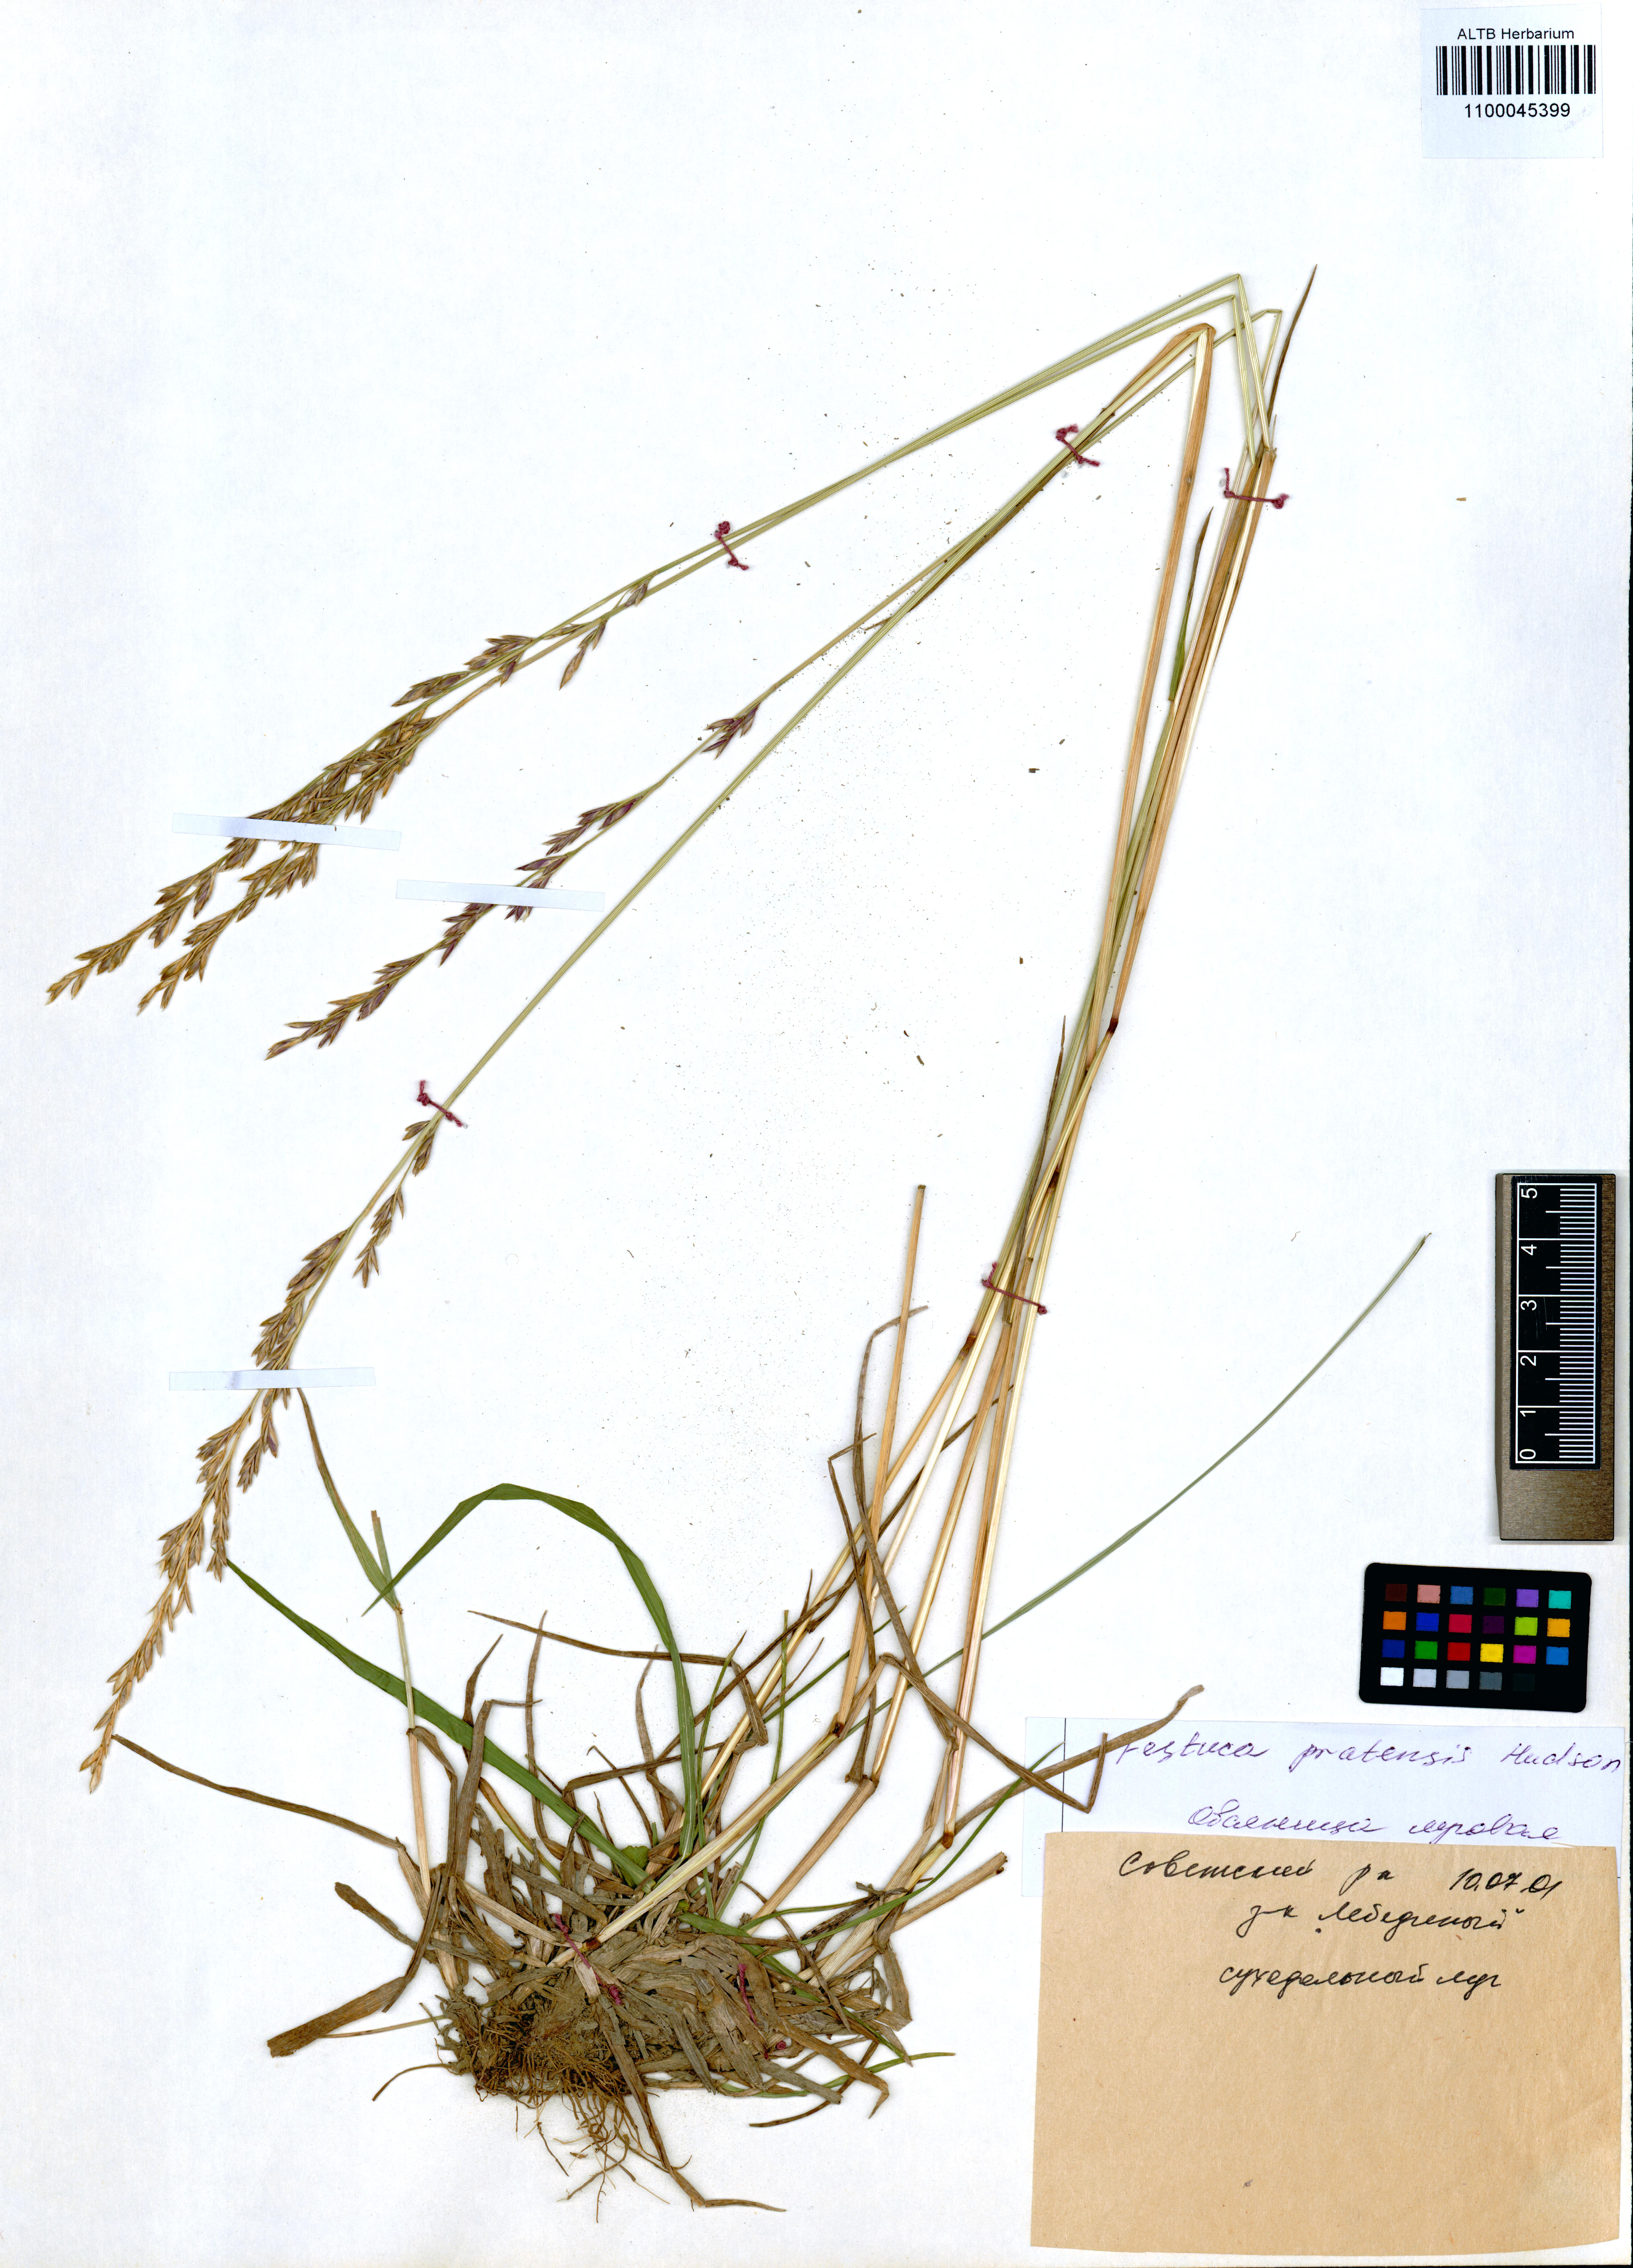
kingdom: Plantae
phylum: Tracheophyta
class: Liliopsida
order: Poales
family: Poaceae
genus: Lolium
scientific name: Lolium pratense
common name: Dover grass
